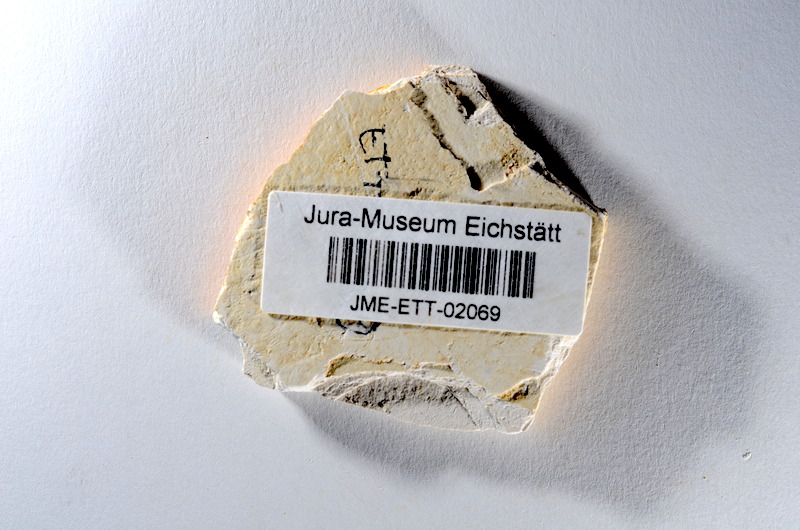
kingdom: Animalia
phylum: Chordata
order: Salmoniformes
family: Orthogonikleithridae
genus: Orthogonikleithrus
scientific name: Orthogonikleithrus hoelli
